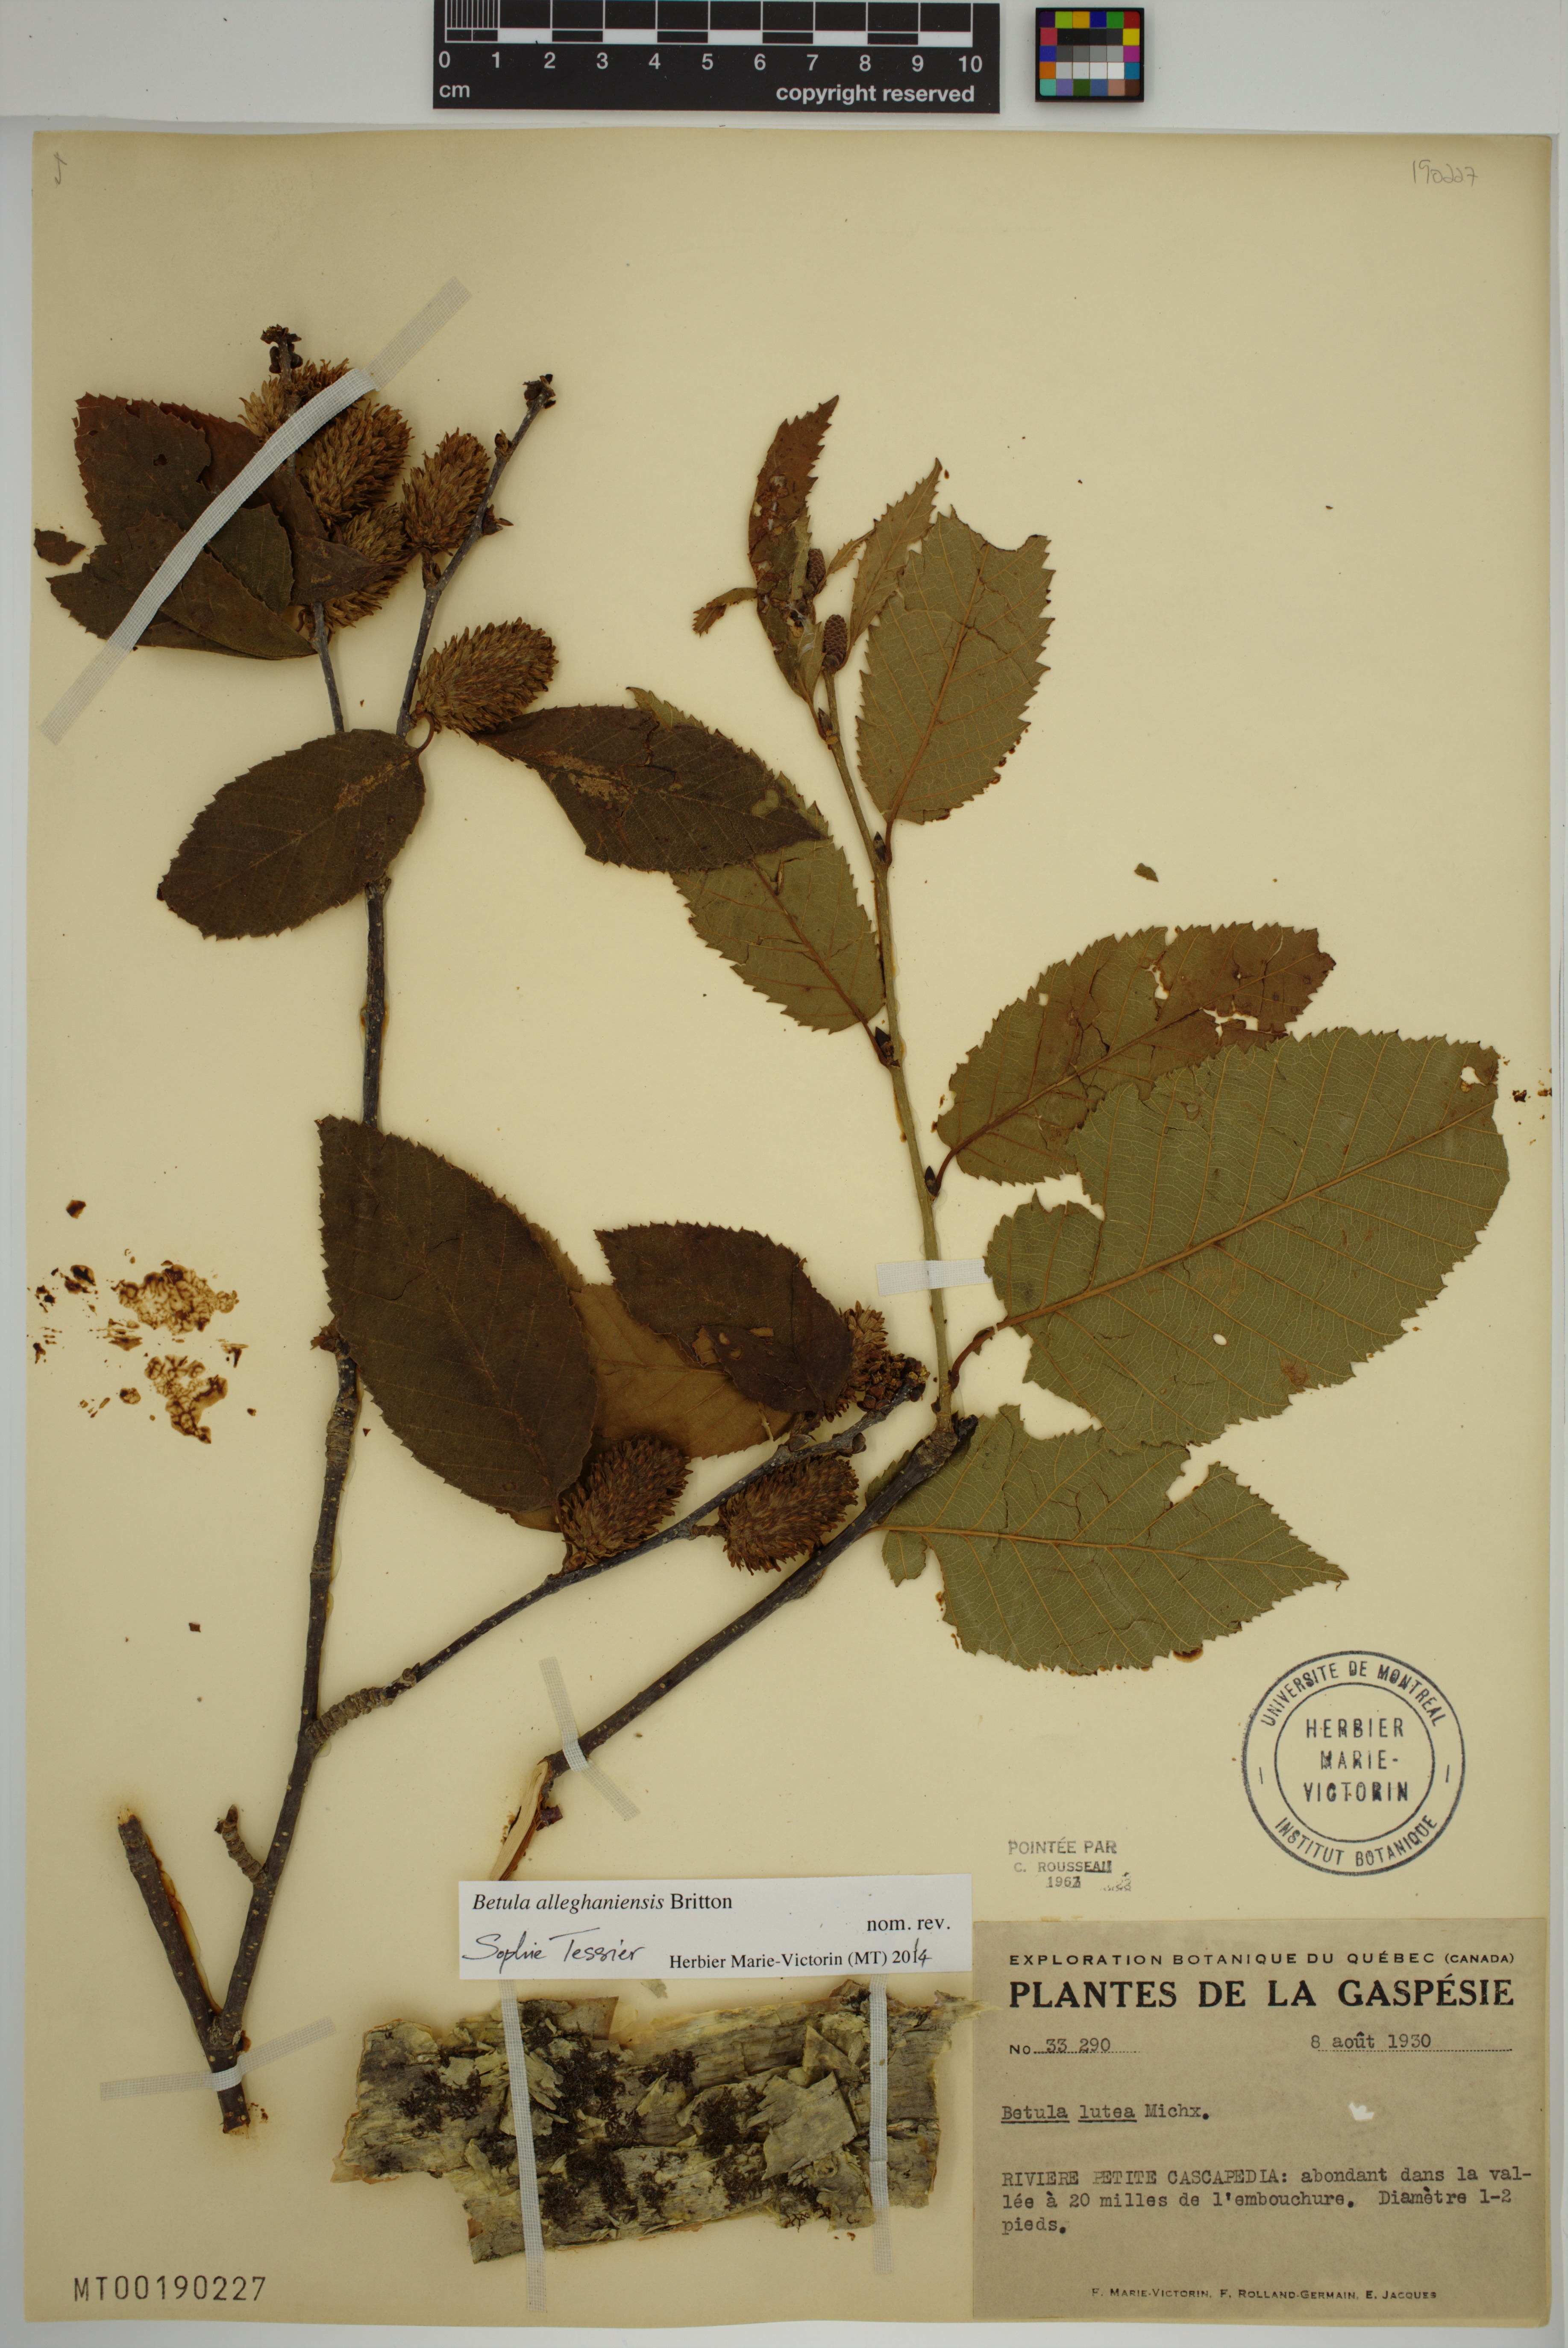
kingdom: Plantae
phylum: Tracheophyta
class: Magnoliopsida
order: Fagales
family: Betulaceae
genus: Betula
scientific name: Betula alleghaniensis
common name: Yellow birch
